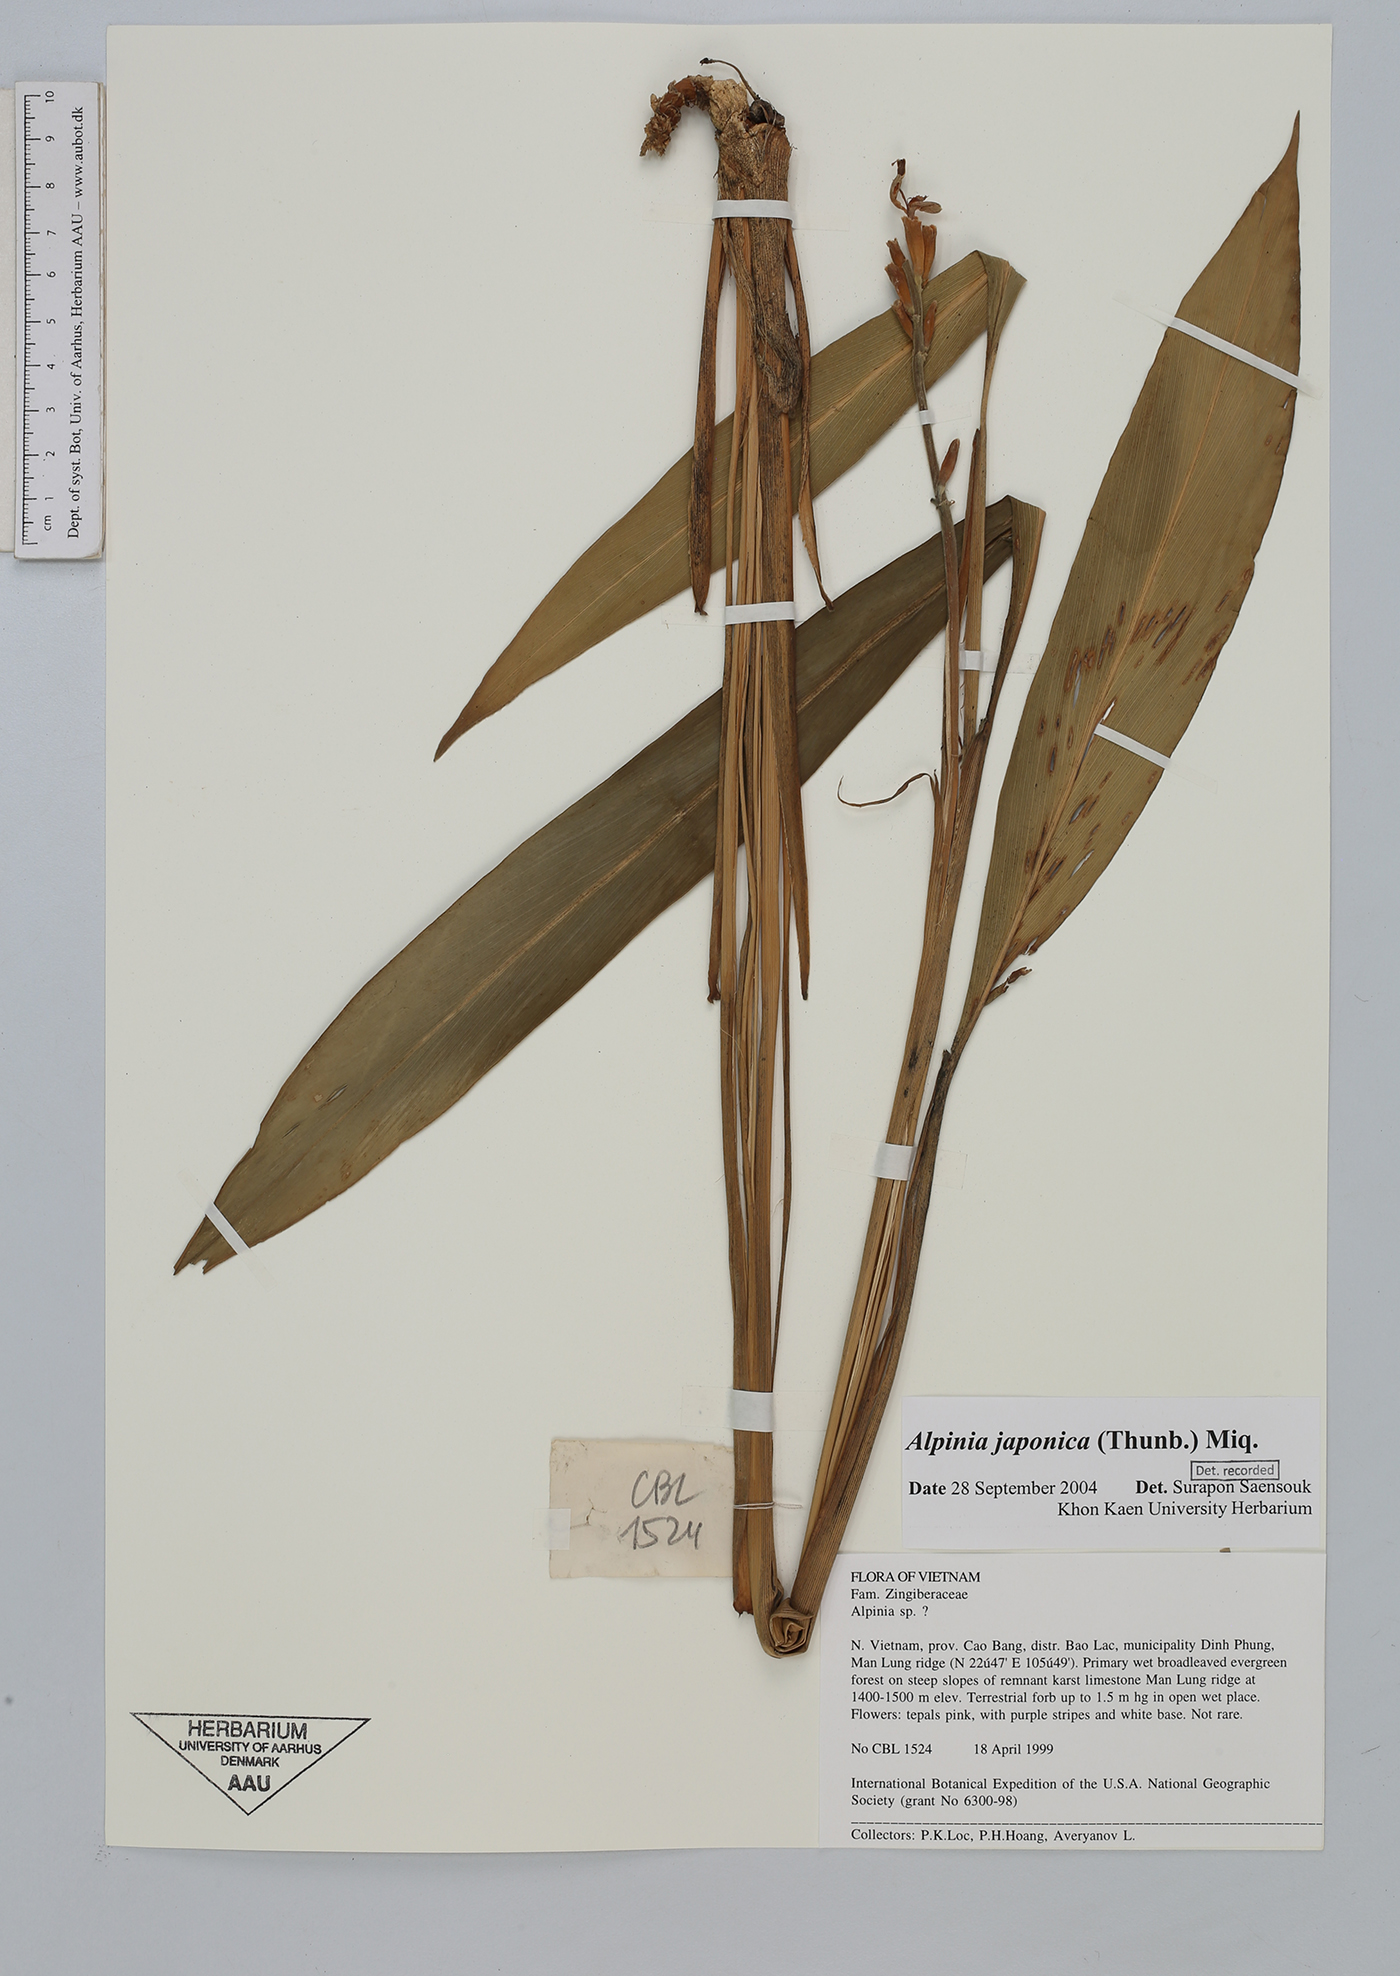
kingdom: Plantae
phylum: Tracheophyta
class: Liliopsida
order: Zingiberales
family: Zingiberaceae
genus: Alpinia
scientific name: Alpinia japonica
